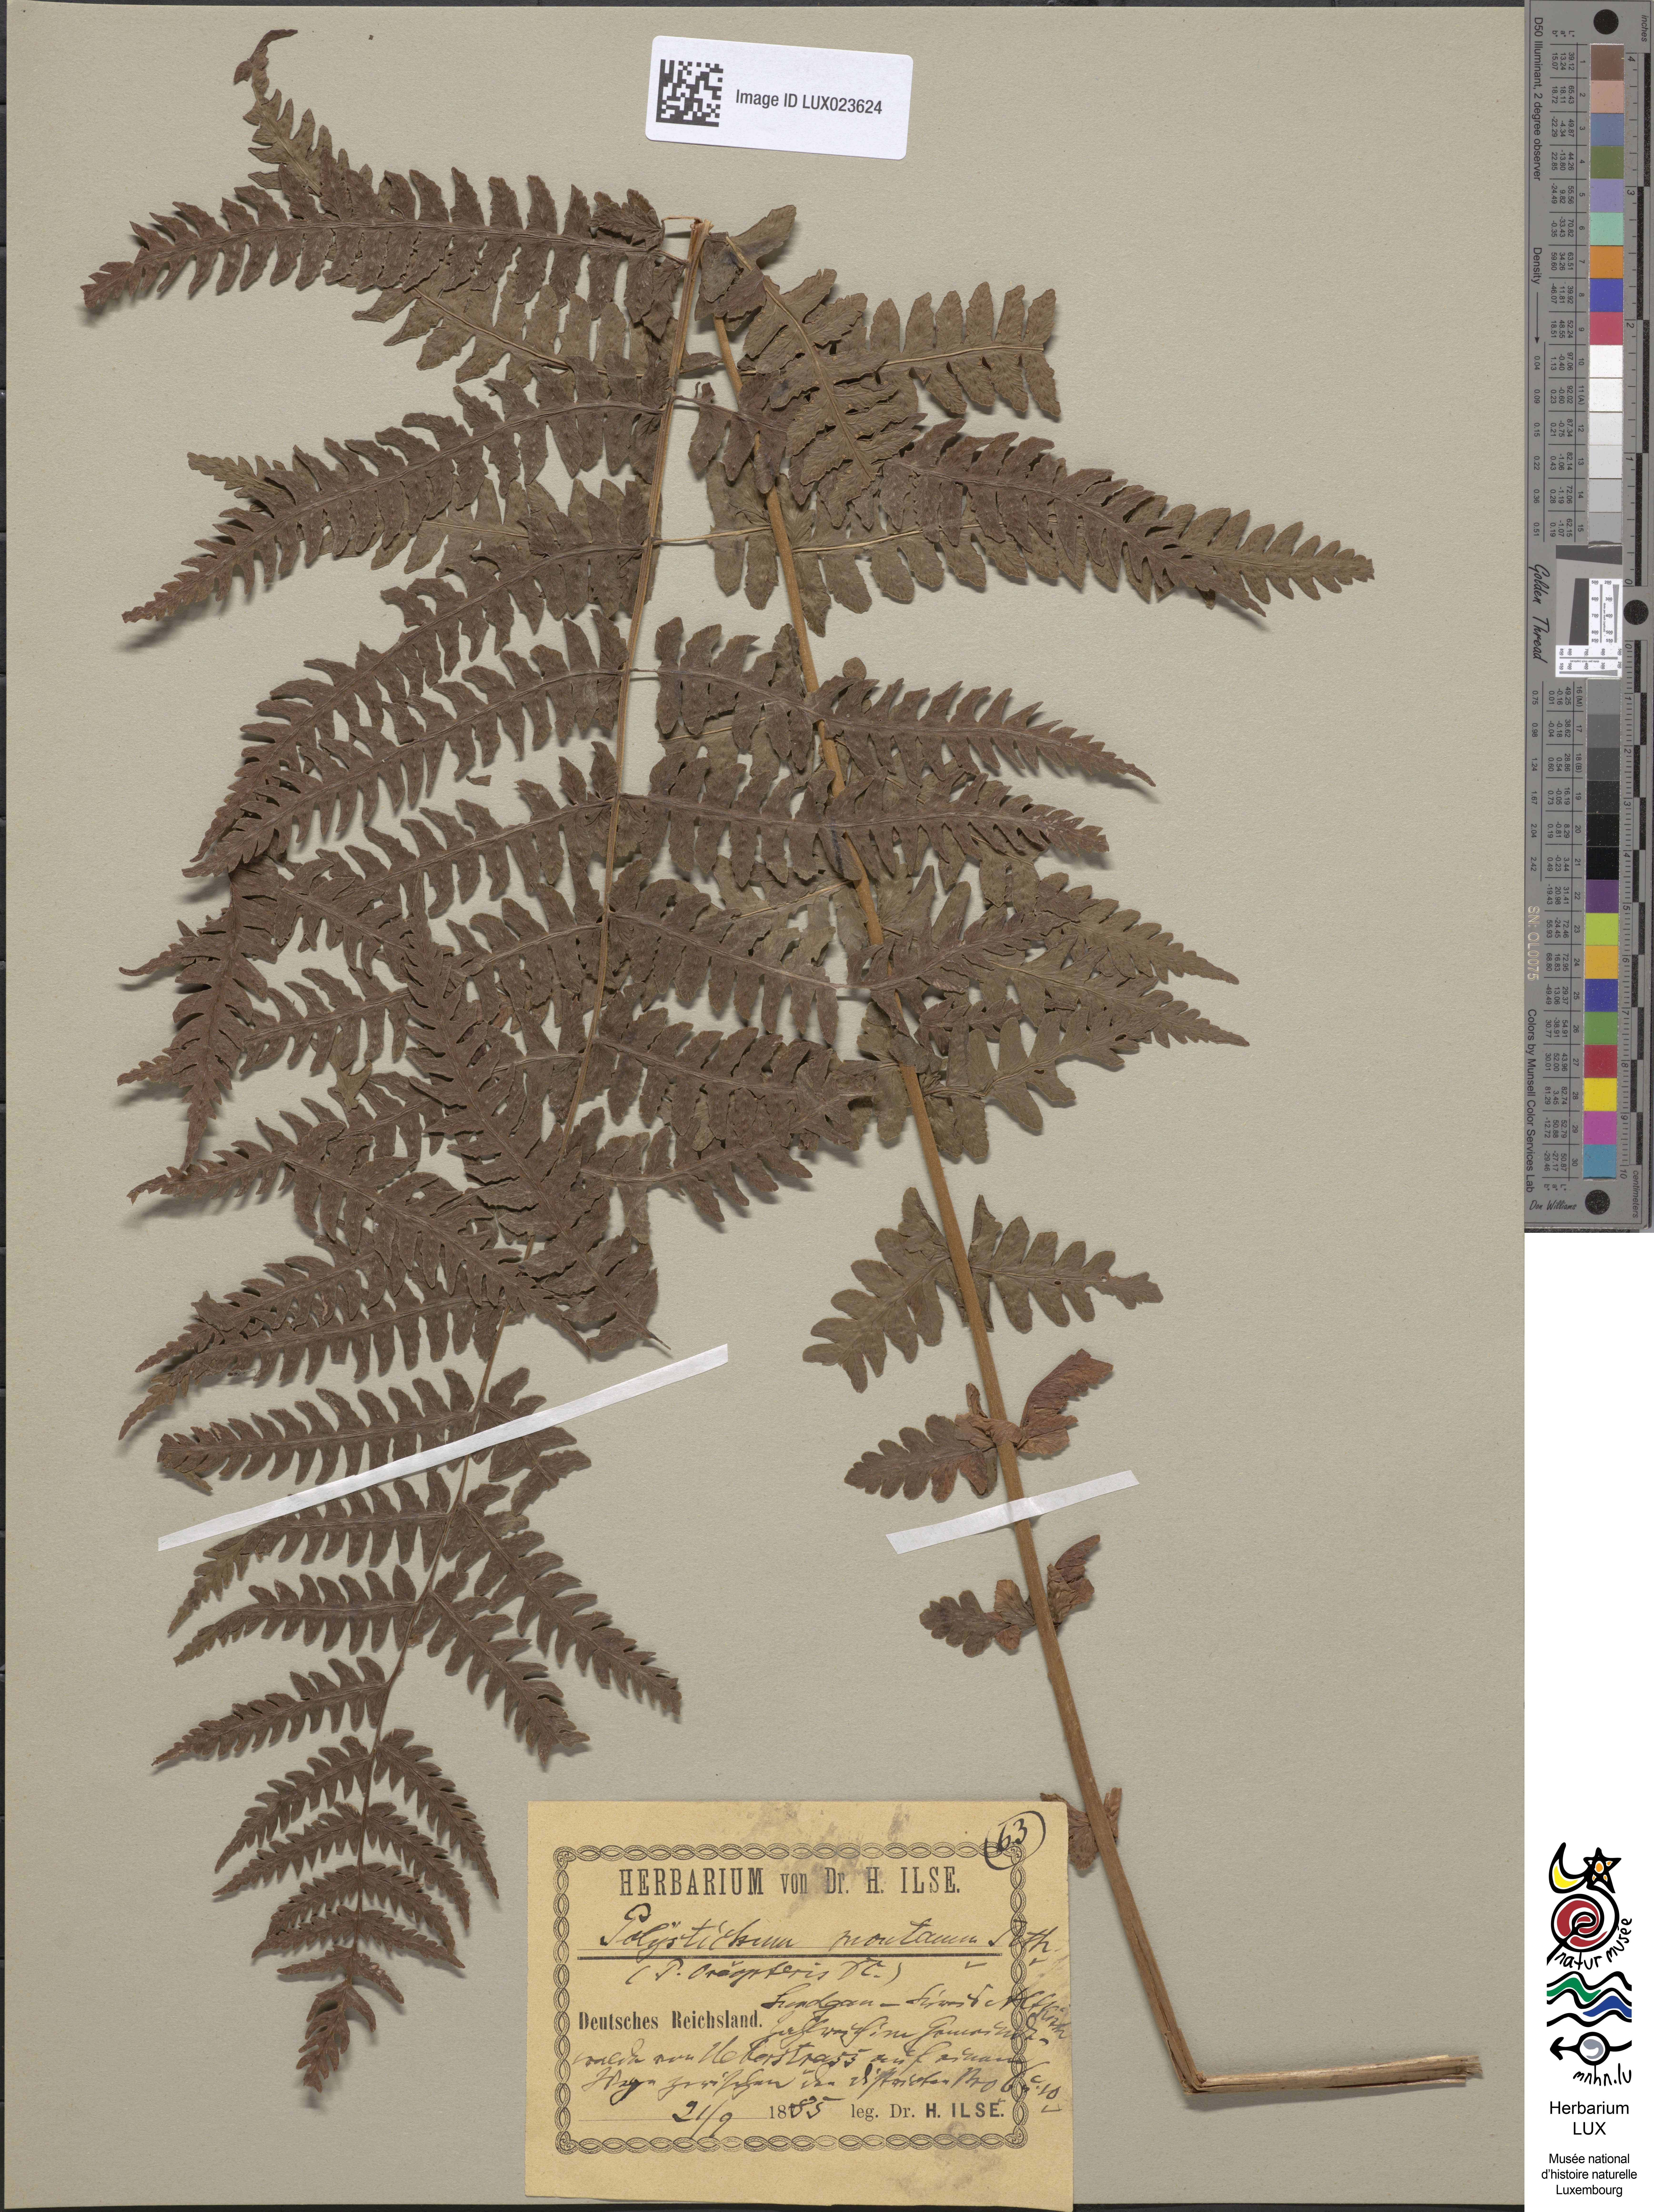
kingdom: Plantae
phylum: Tracheophyta
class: Polypodiopsida
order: Polypodiales
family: Thelypteridaceae
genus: Oreopteris
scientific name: Oreopteris limbosperma
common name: Lemon-scented fern
